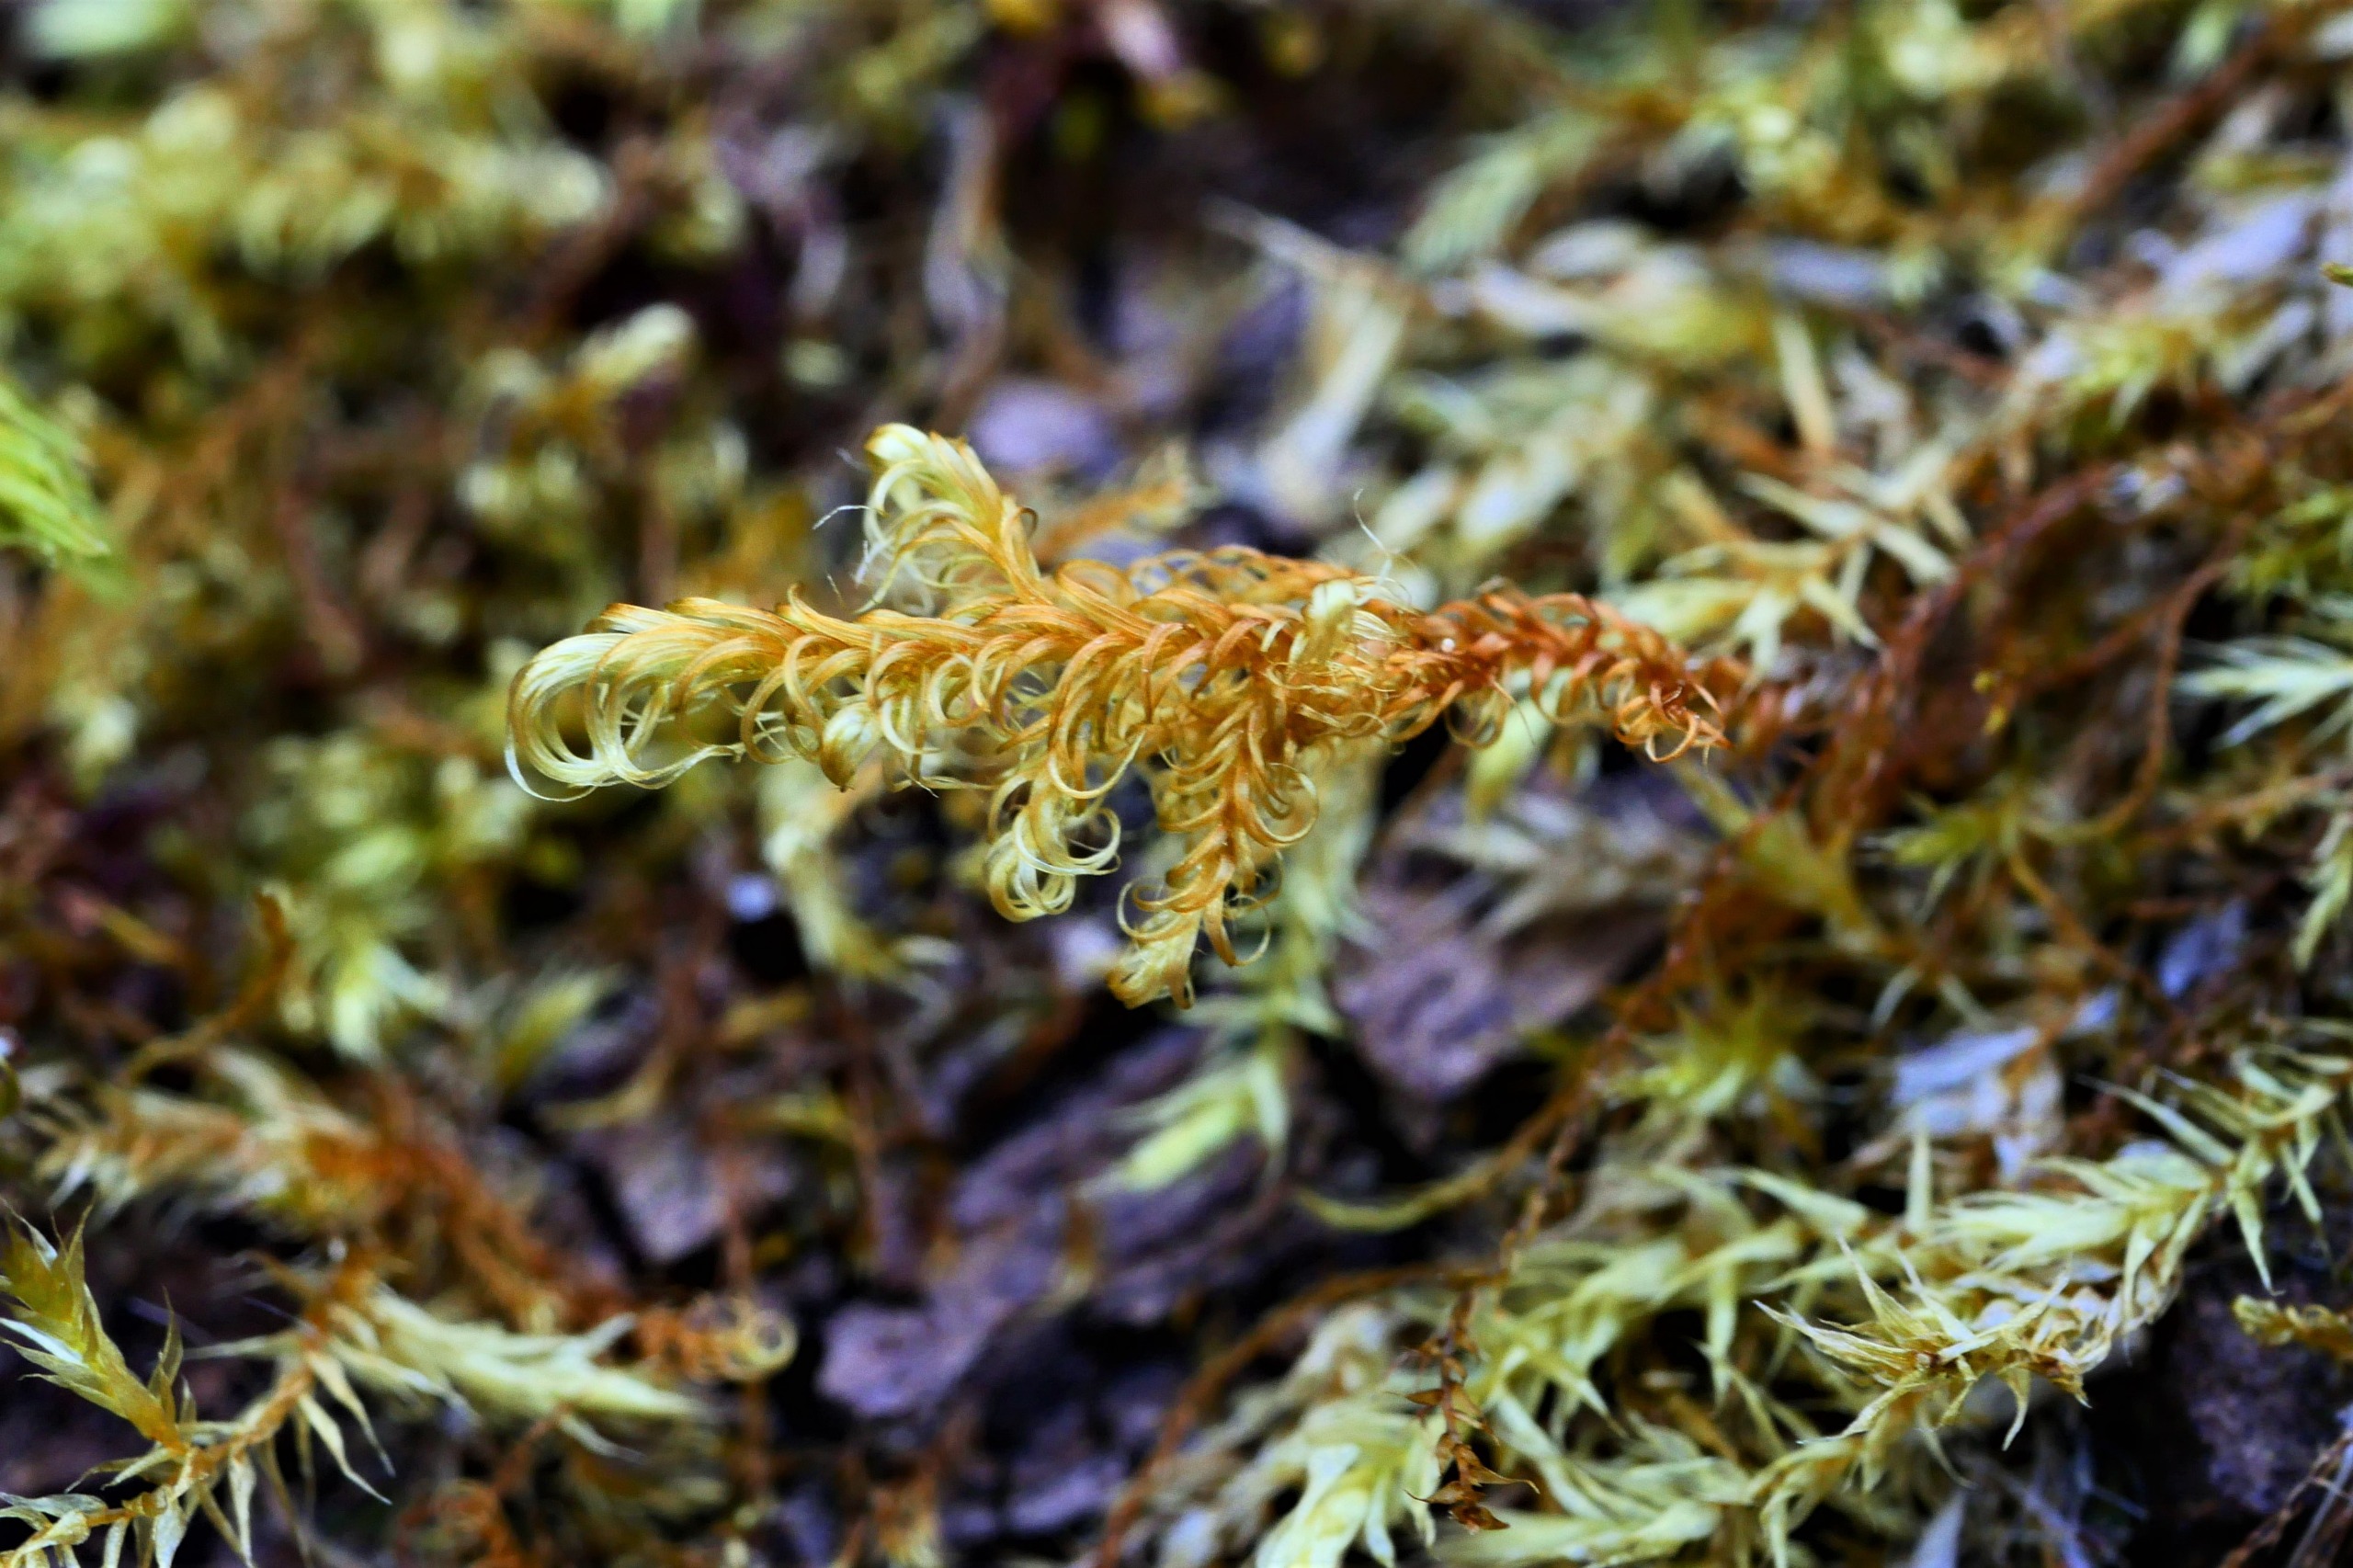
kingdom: Plantae
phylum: Bryophyta
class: Bryopsida
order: Hypnales
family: Scorpidiaceae
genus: Sanionia
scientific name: Sanionia uncinata
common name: Stribet krogblad
